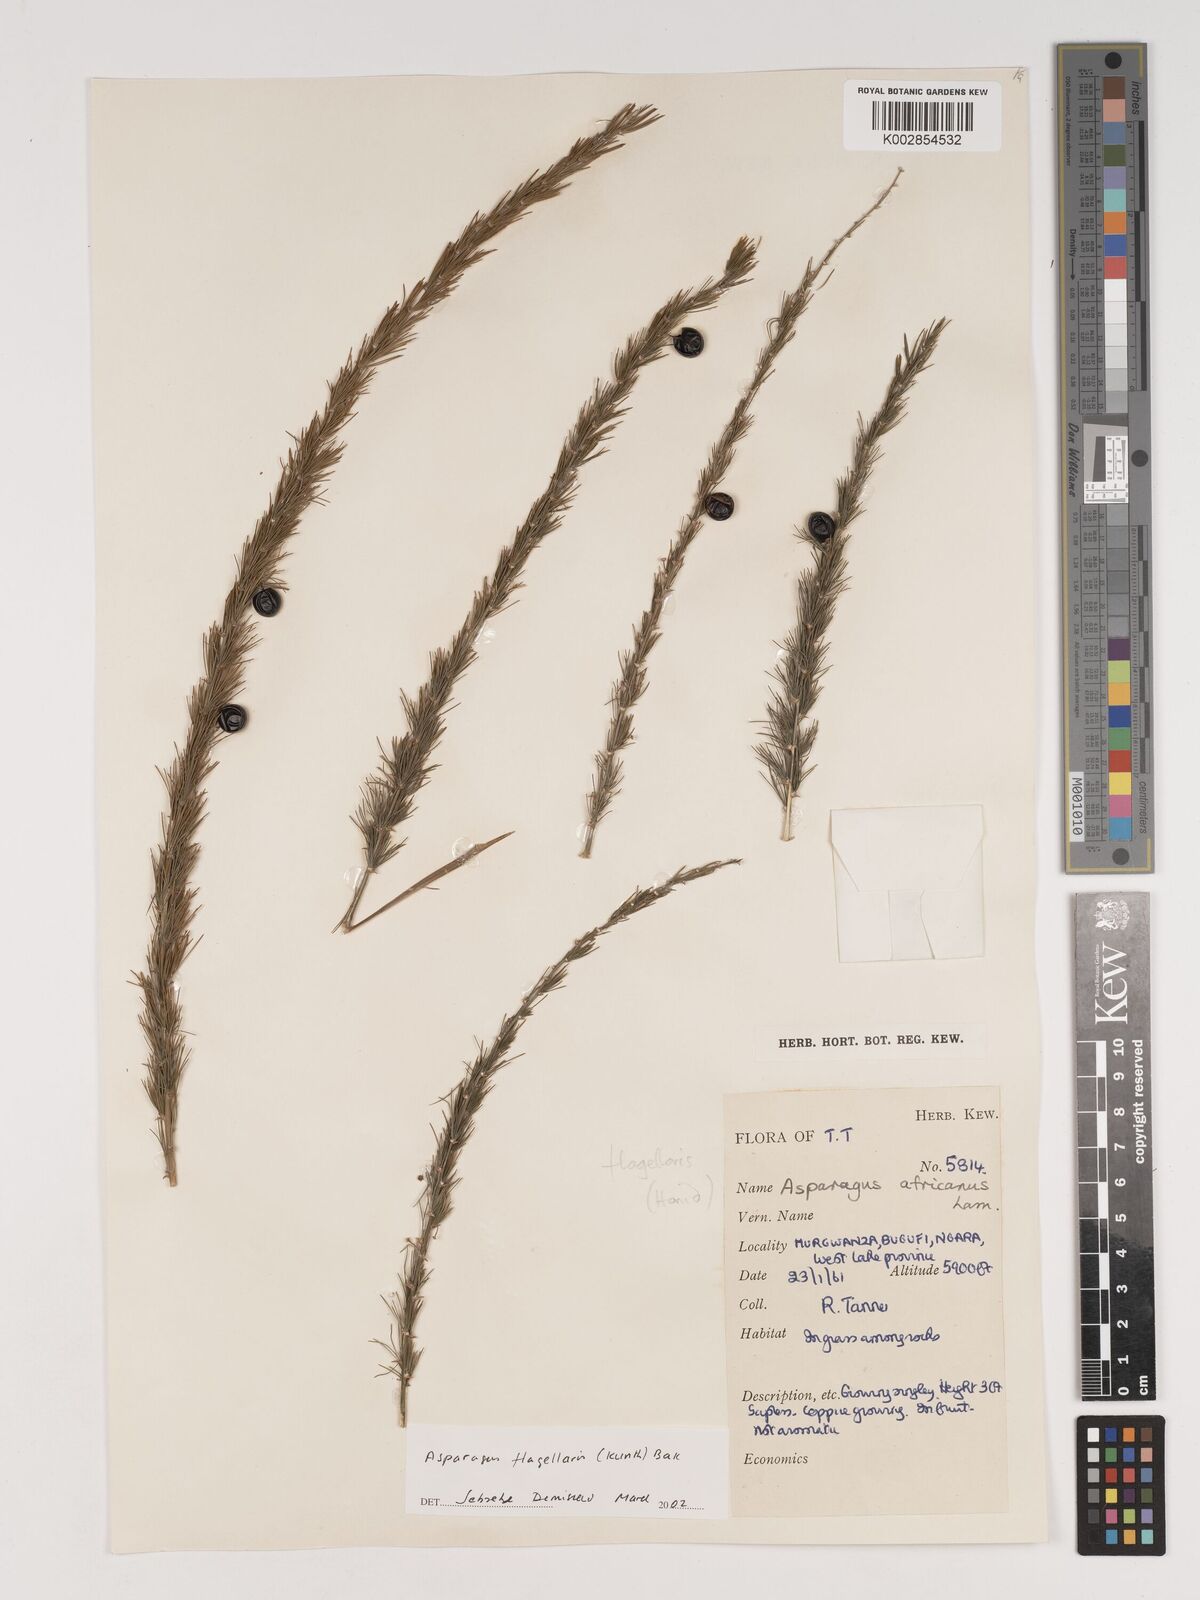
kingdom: Plantae
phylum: Tracheophyta
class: Liliopsida
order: Asparagales
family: Asparagaceae
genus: Asparagus
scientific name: Asparagus flagellaris
